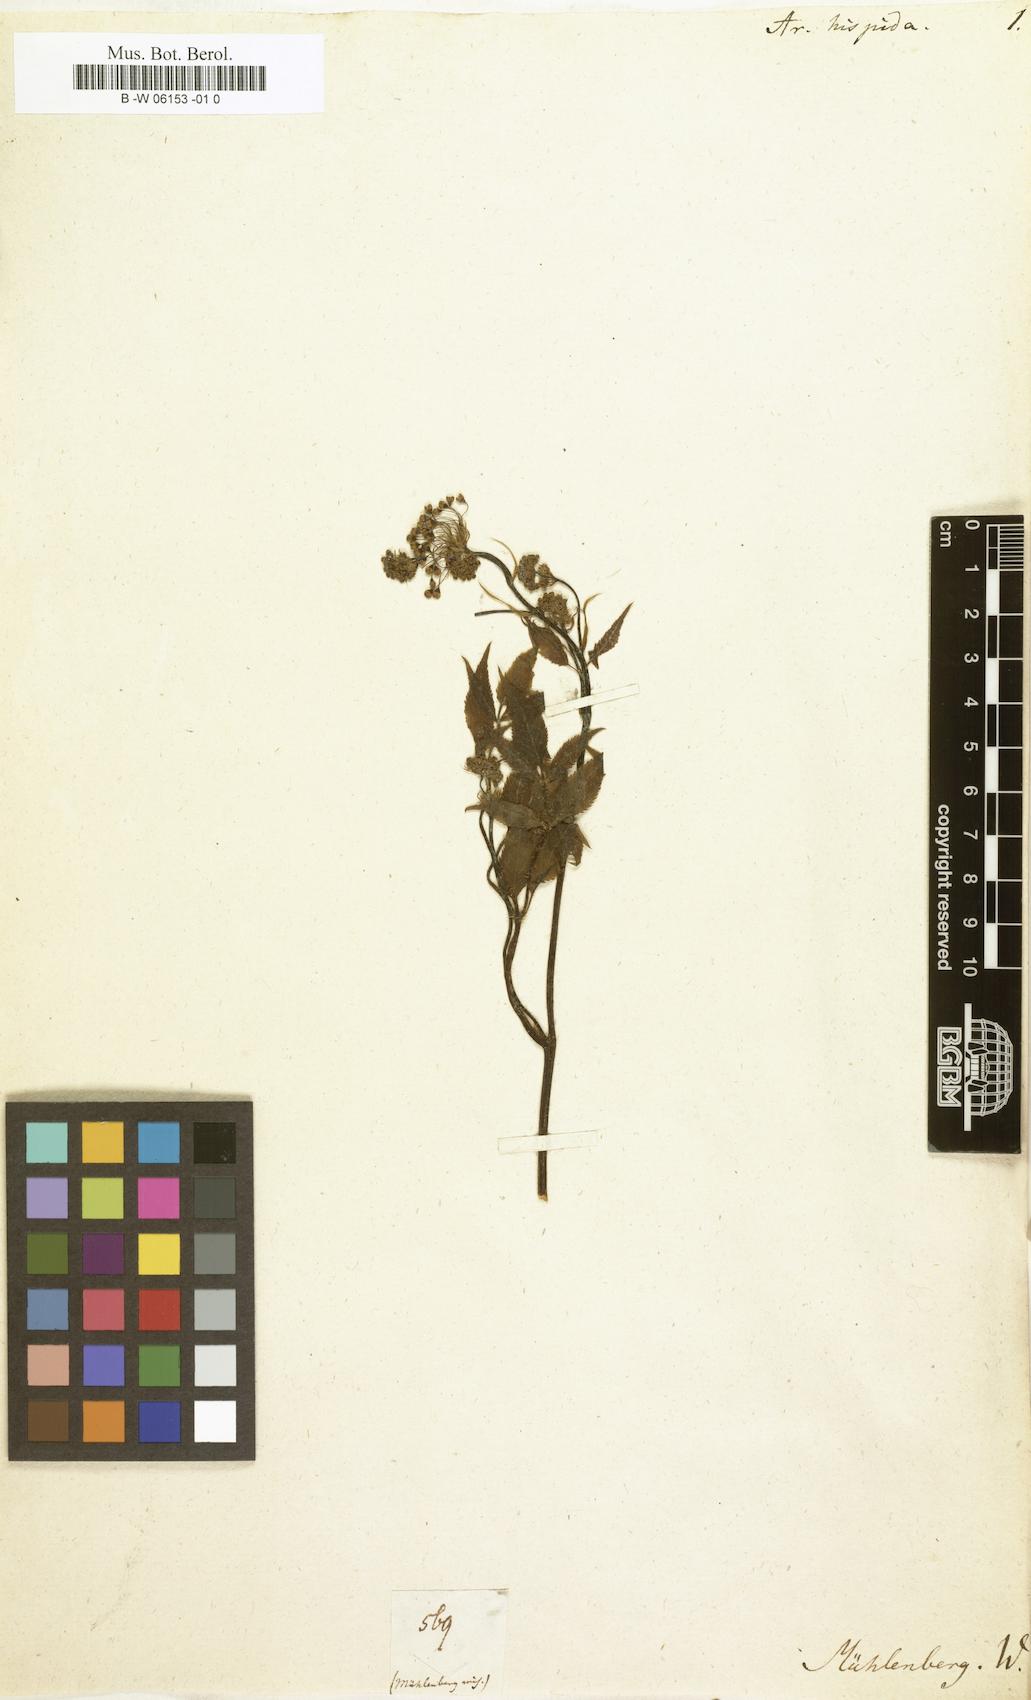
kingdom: Plantae
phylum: Tracheophyta
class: Magnoliopsida
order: Apiales
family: Araliaceae
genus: Aralia
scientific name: Aralia hispida
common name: Bristly sarsaparilla
